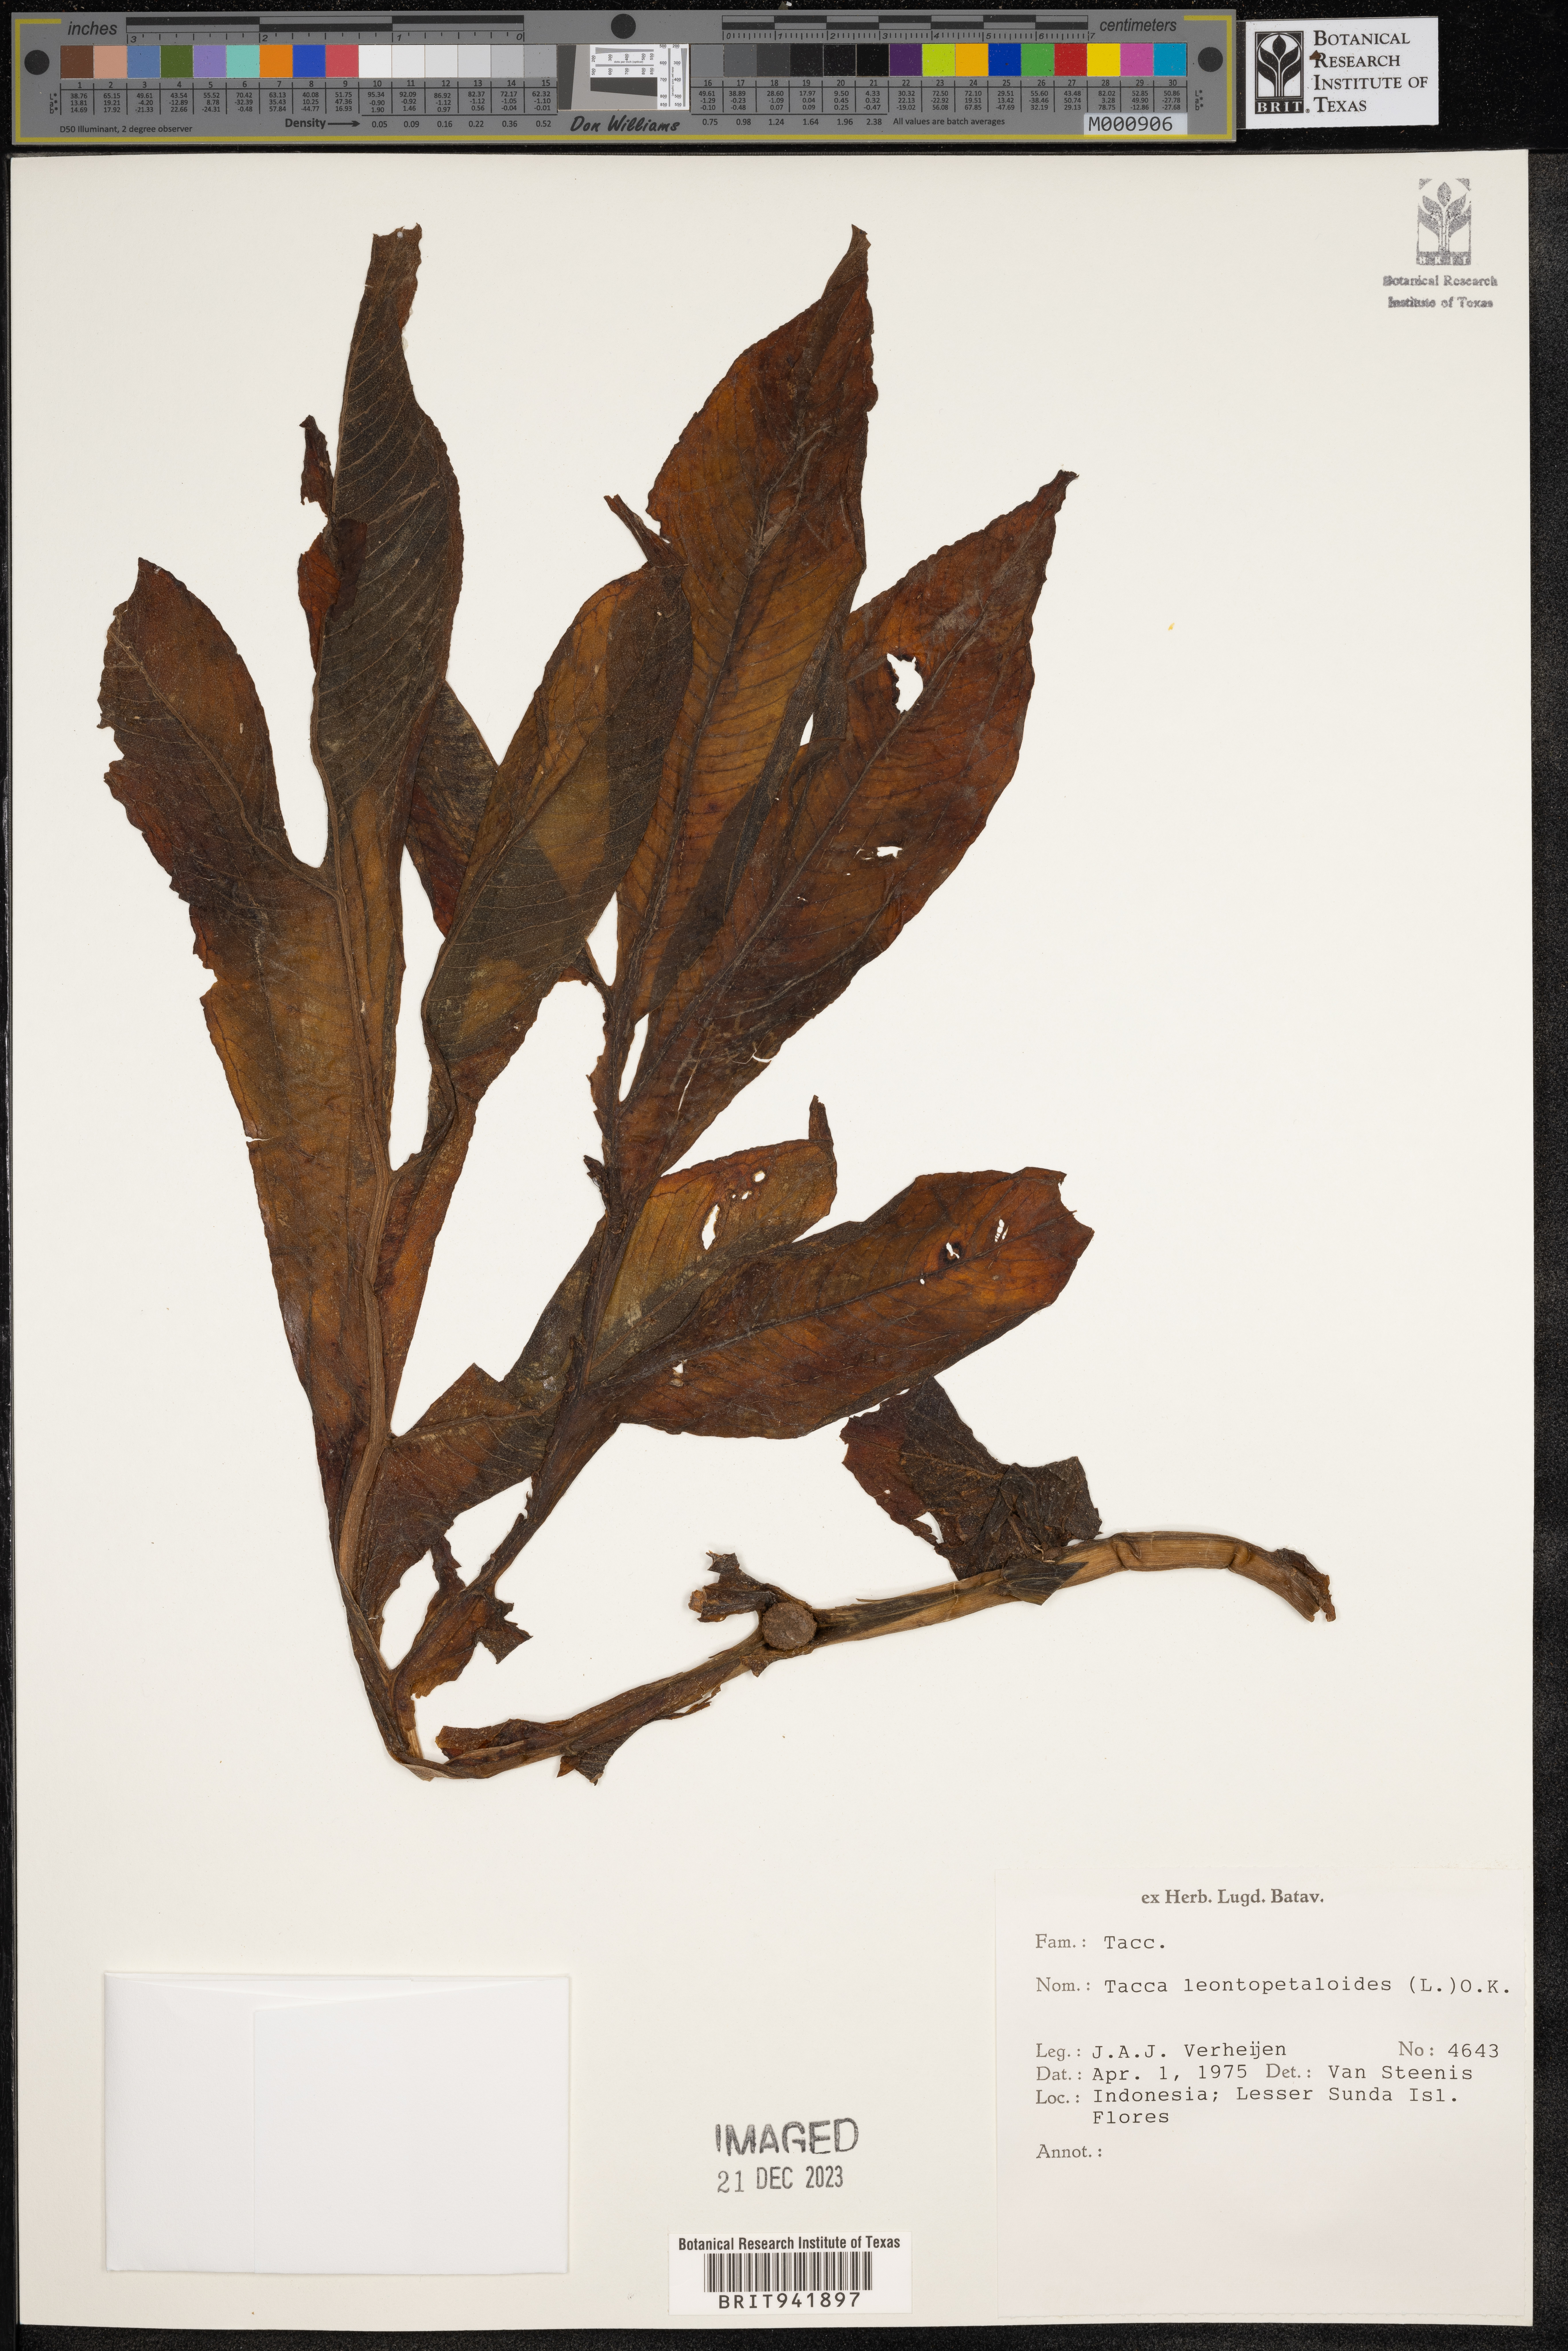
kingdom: Plantae
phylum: Tracheophyta
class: Liliopsida
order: Dioscoreales
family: Dioscoreaceae
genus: Tacca
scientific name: Tacca
